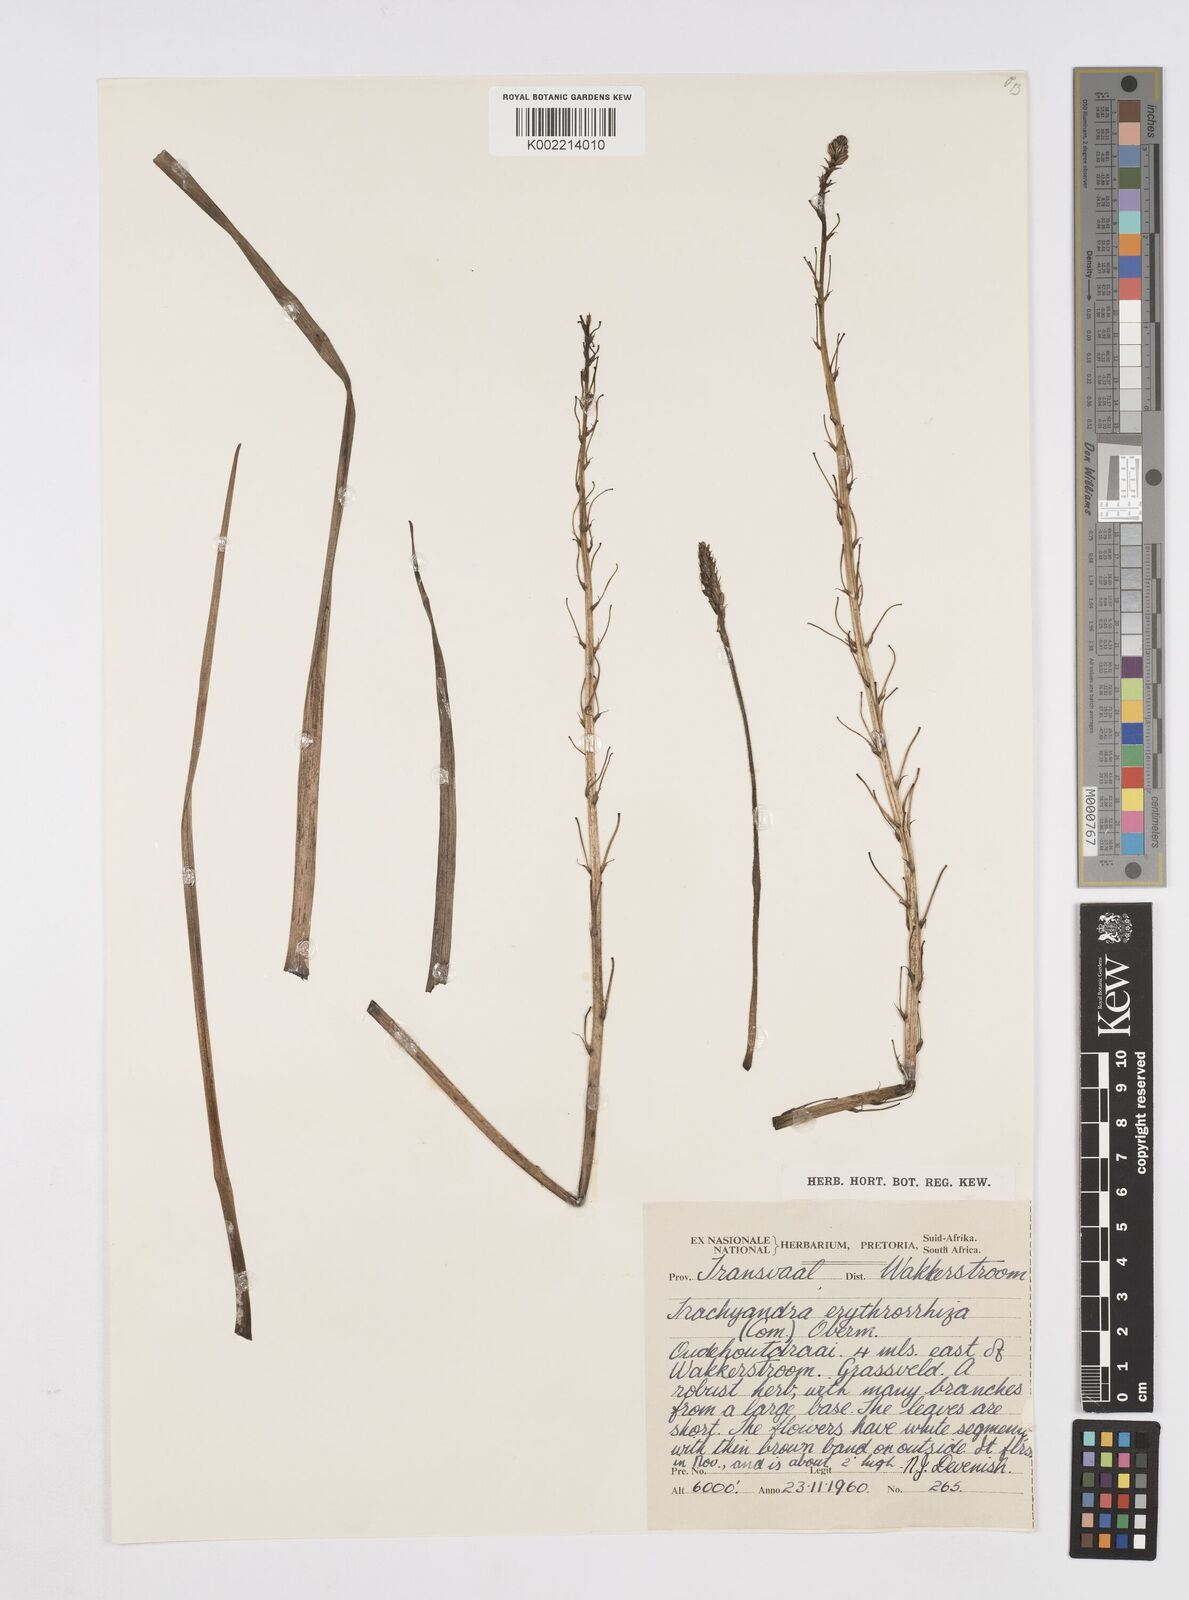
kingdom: Plantae
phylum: Tracheophyta
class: Liliopsida
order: Asparagales
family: Asphodelaceae
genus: Trachyandra
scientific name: Trachyandra erythrorrhiza
